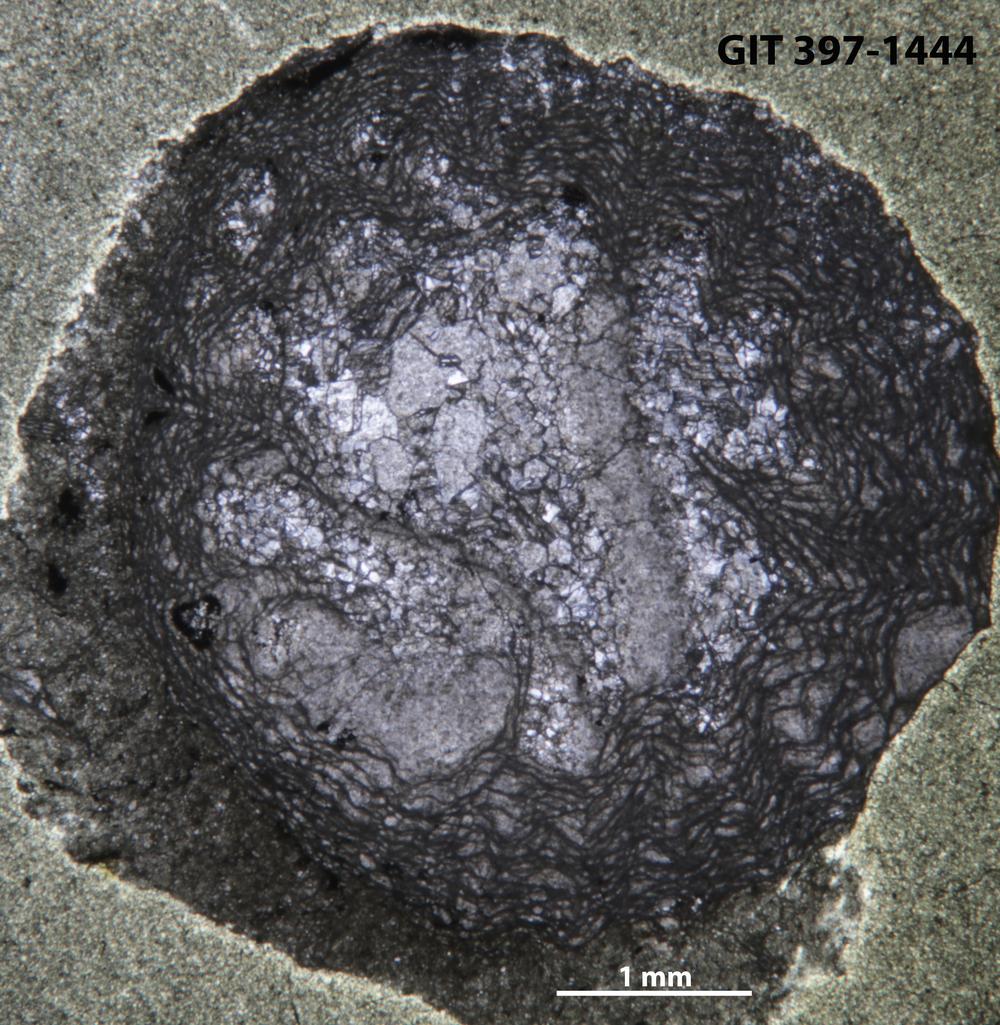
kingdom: Animalia
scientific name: Animalia
